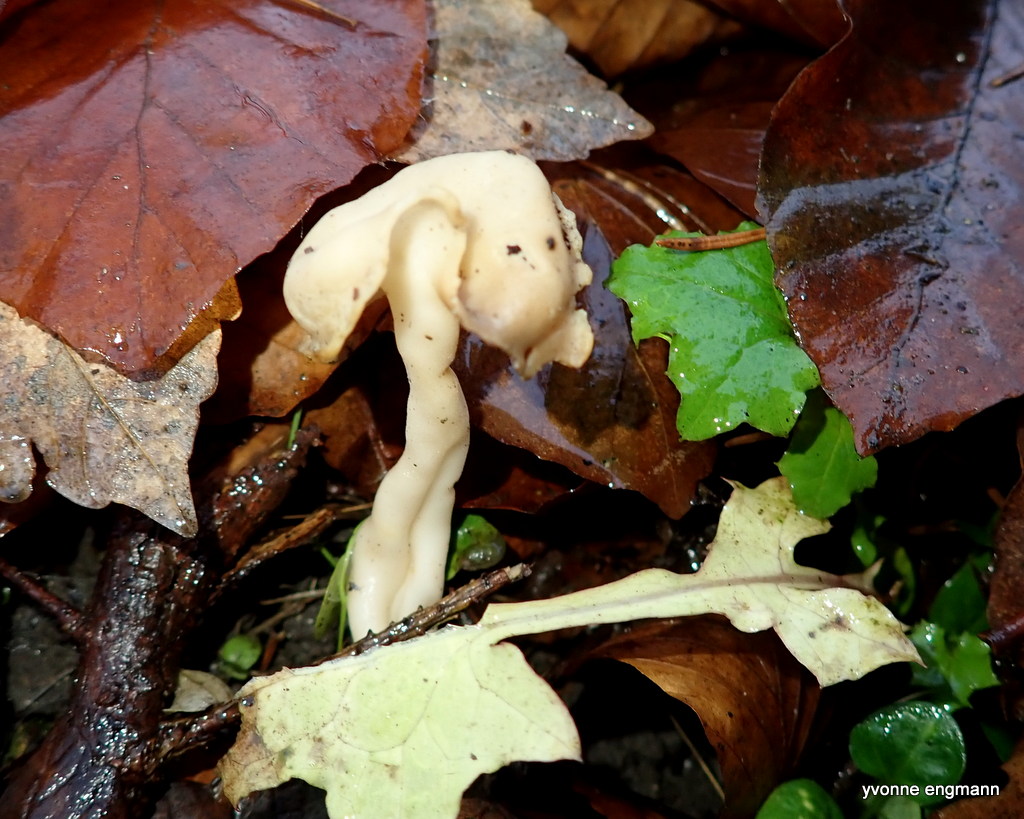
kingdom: Fungi
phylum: Ascomycota
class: Pezizomycetes
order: Pezizales
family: Helvellaceae
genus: Helvella
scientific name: Helvella
